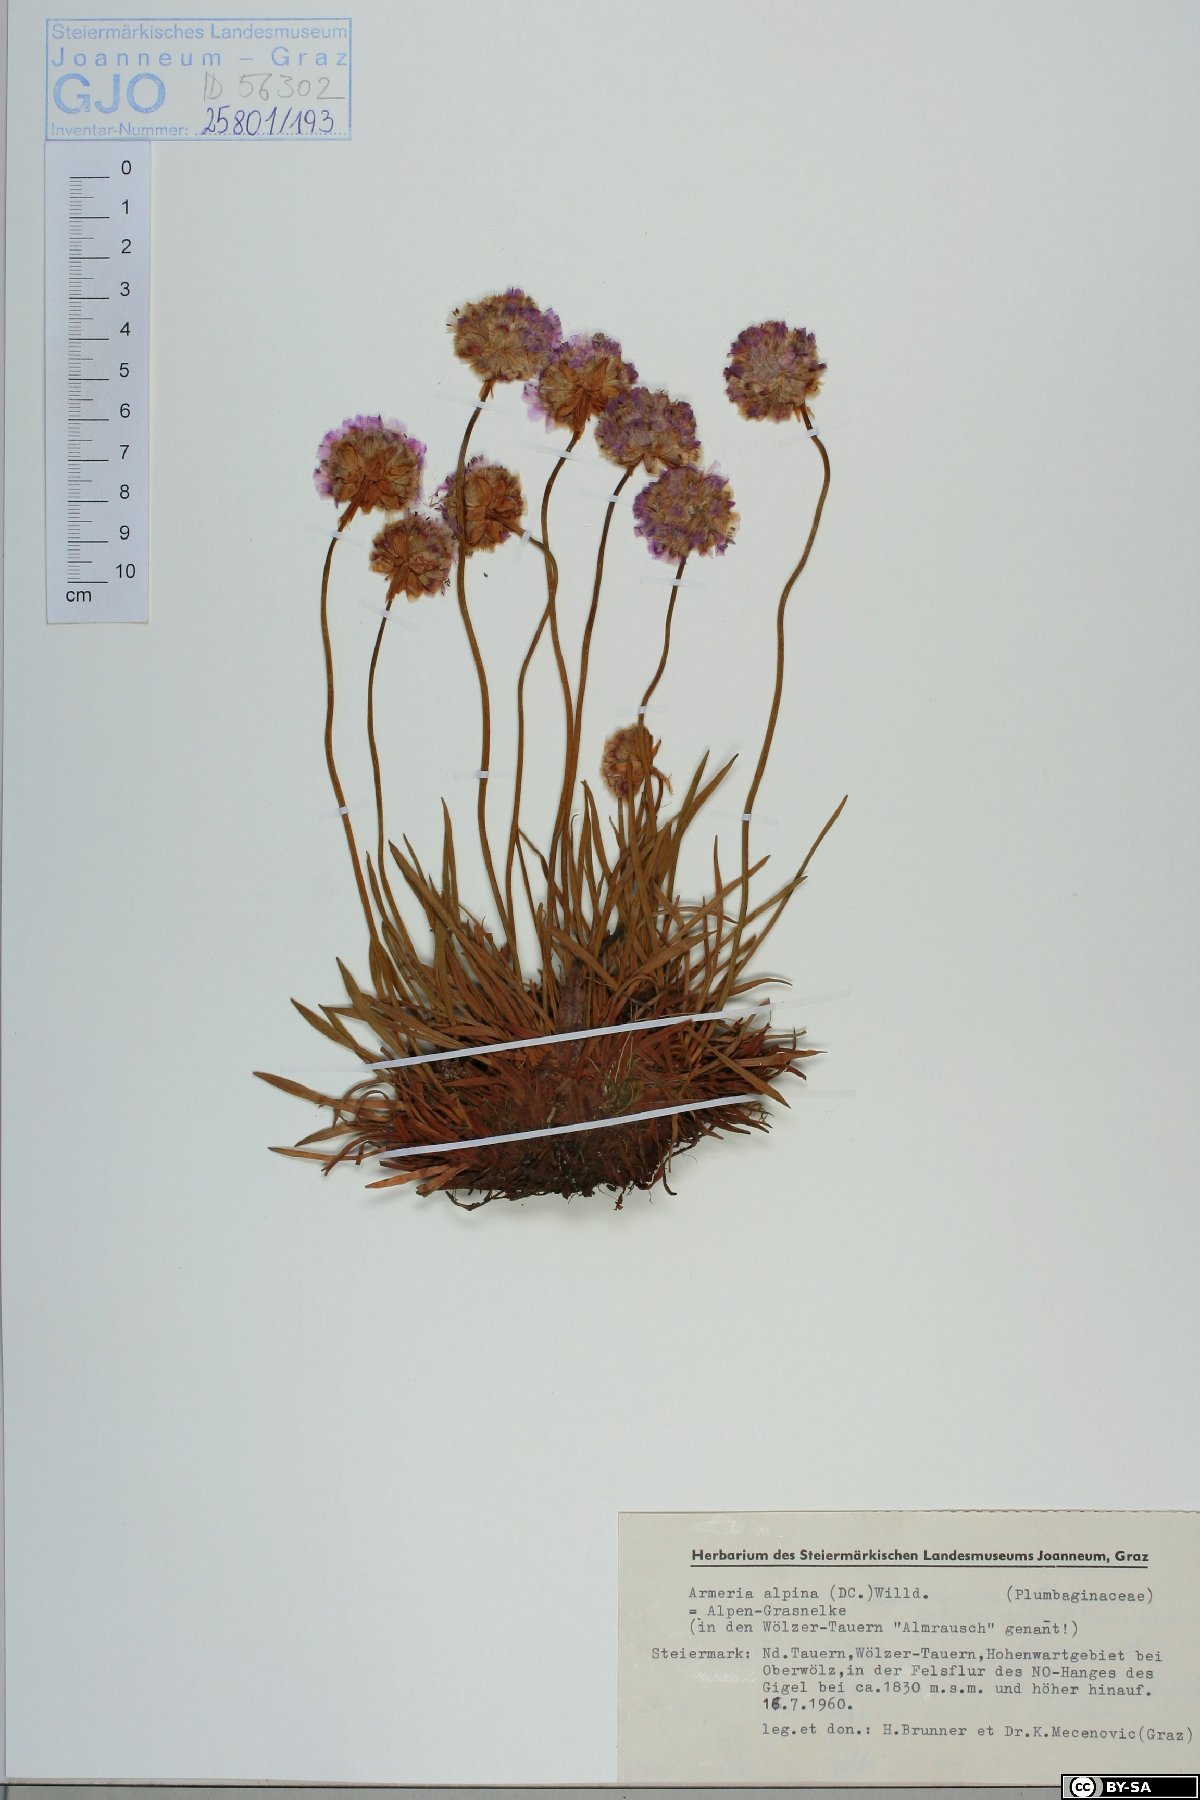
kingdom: Plantae
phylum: Tracheophyta
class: Magnoliopsida
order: Caryophyllales
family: Plumbaginaceae
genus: Armeria
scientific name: Armeria alpina
